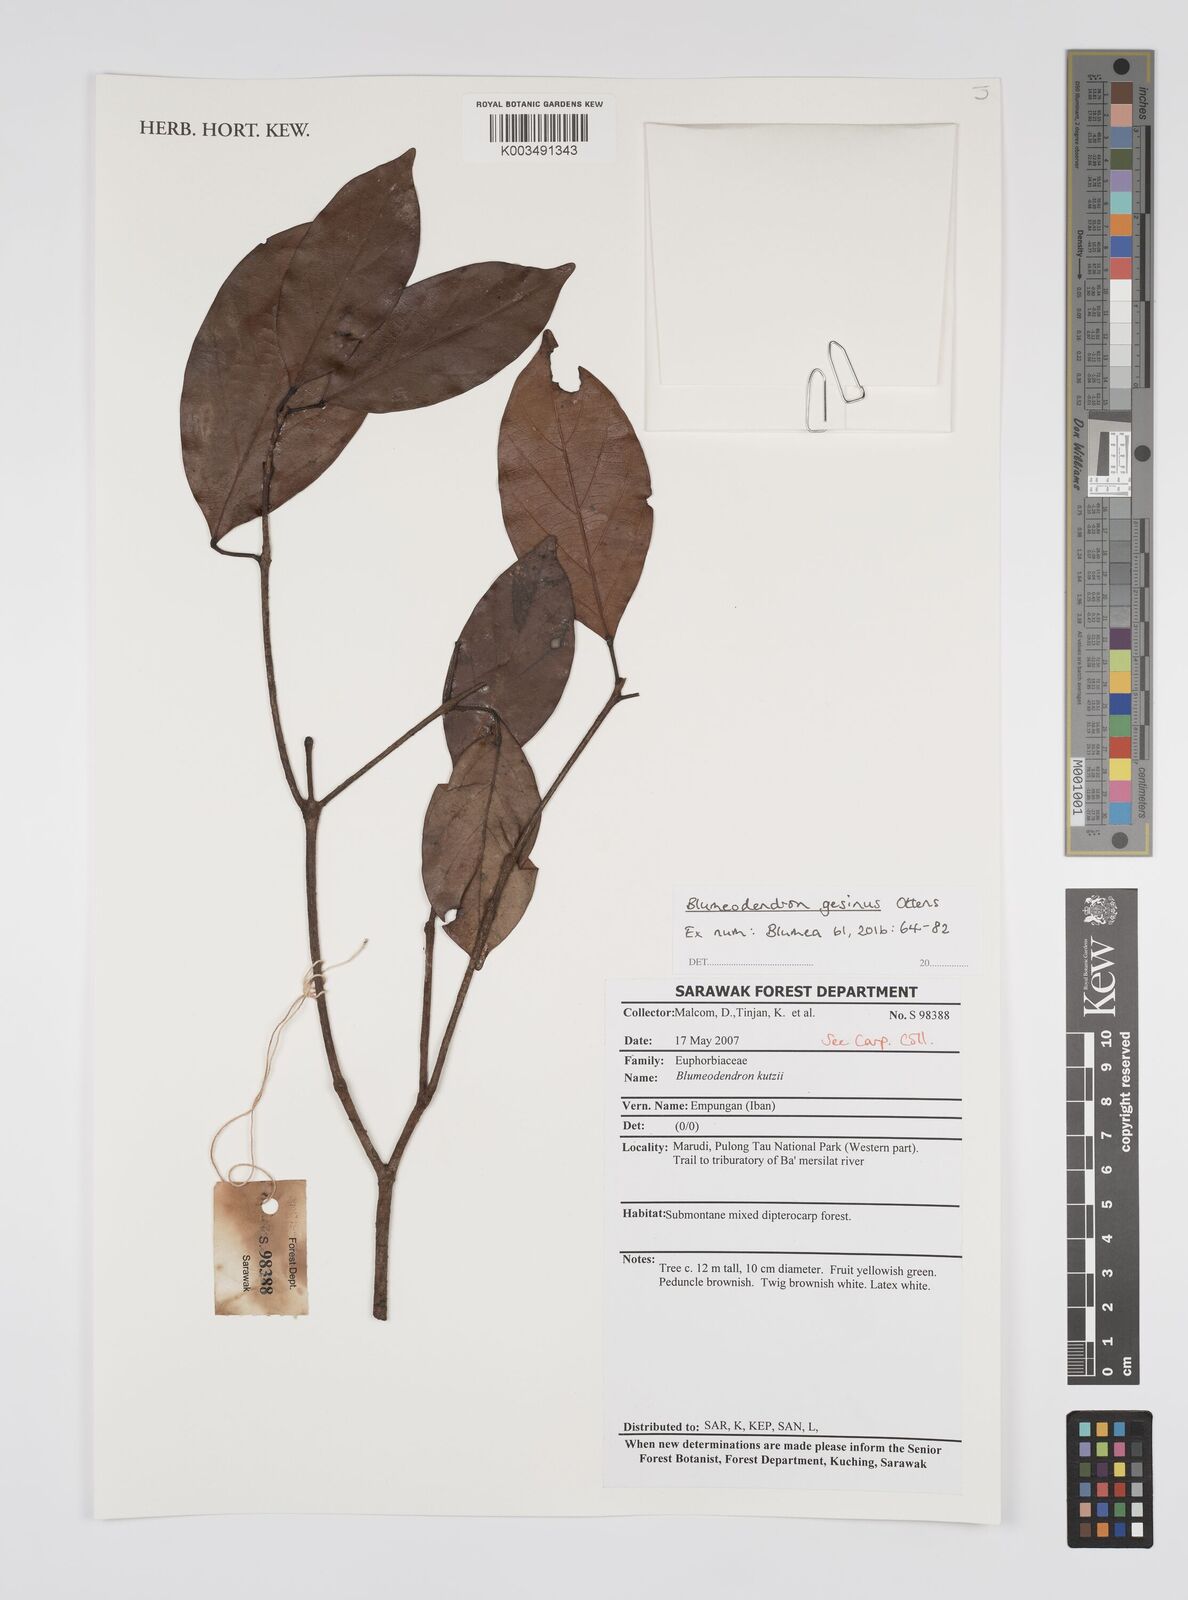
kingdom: Plantae
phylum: Tracheophyta
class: Magnoliopsida
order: Malpighiales
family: Euphorbiaceae
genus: Blumeodendron
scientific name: Blumeodendron gesinus
